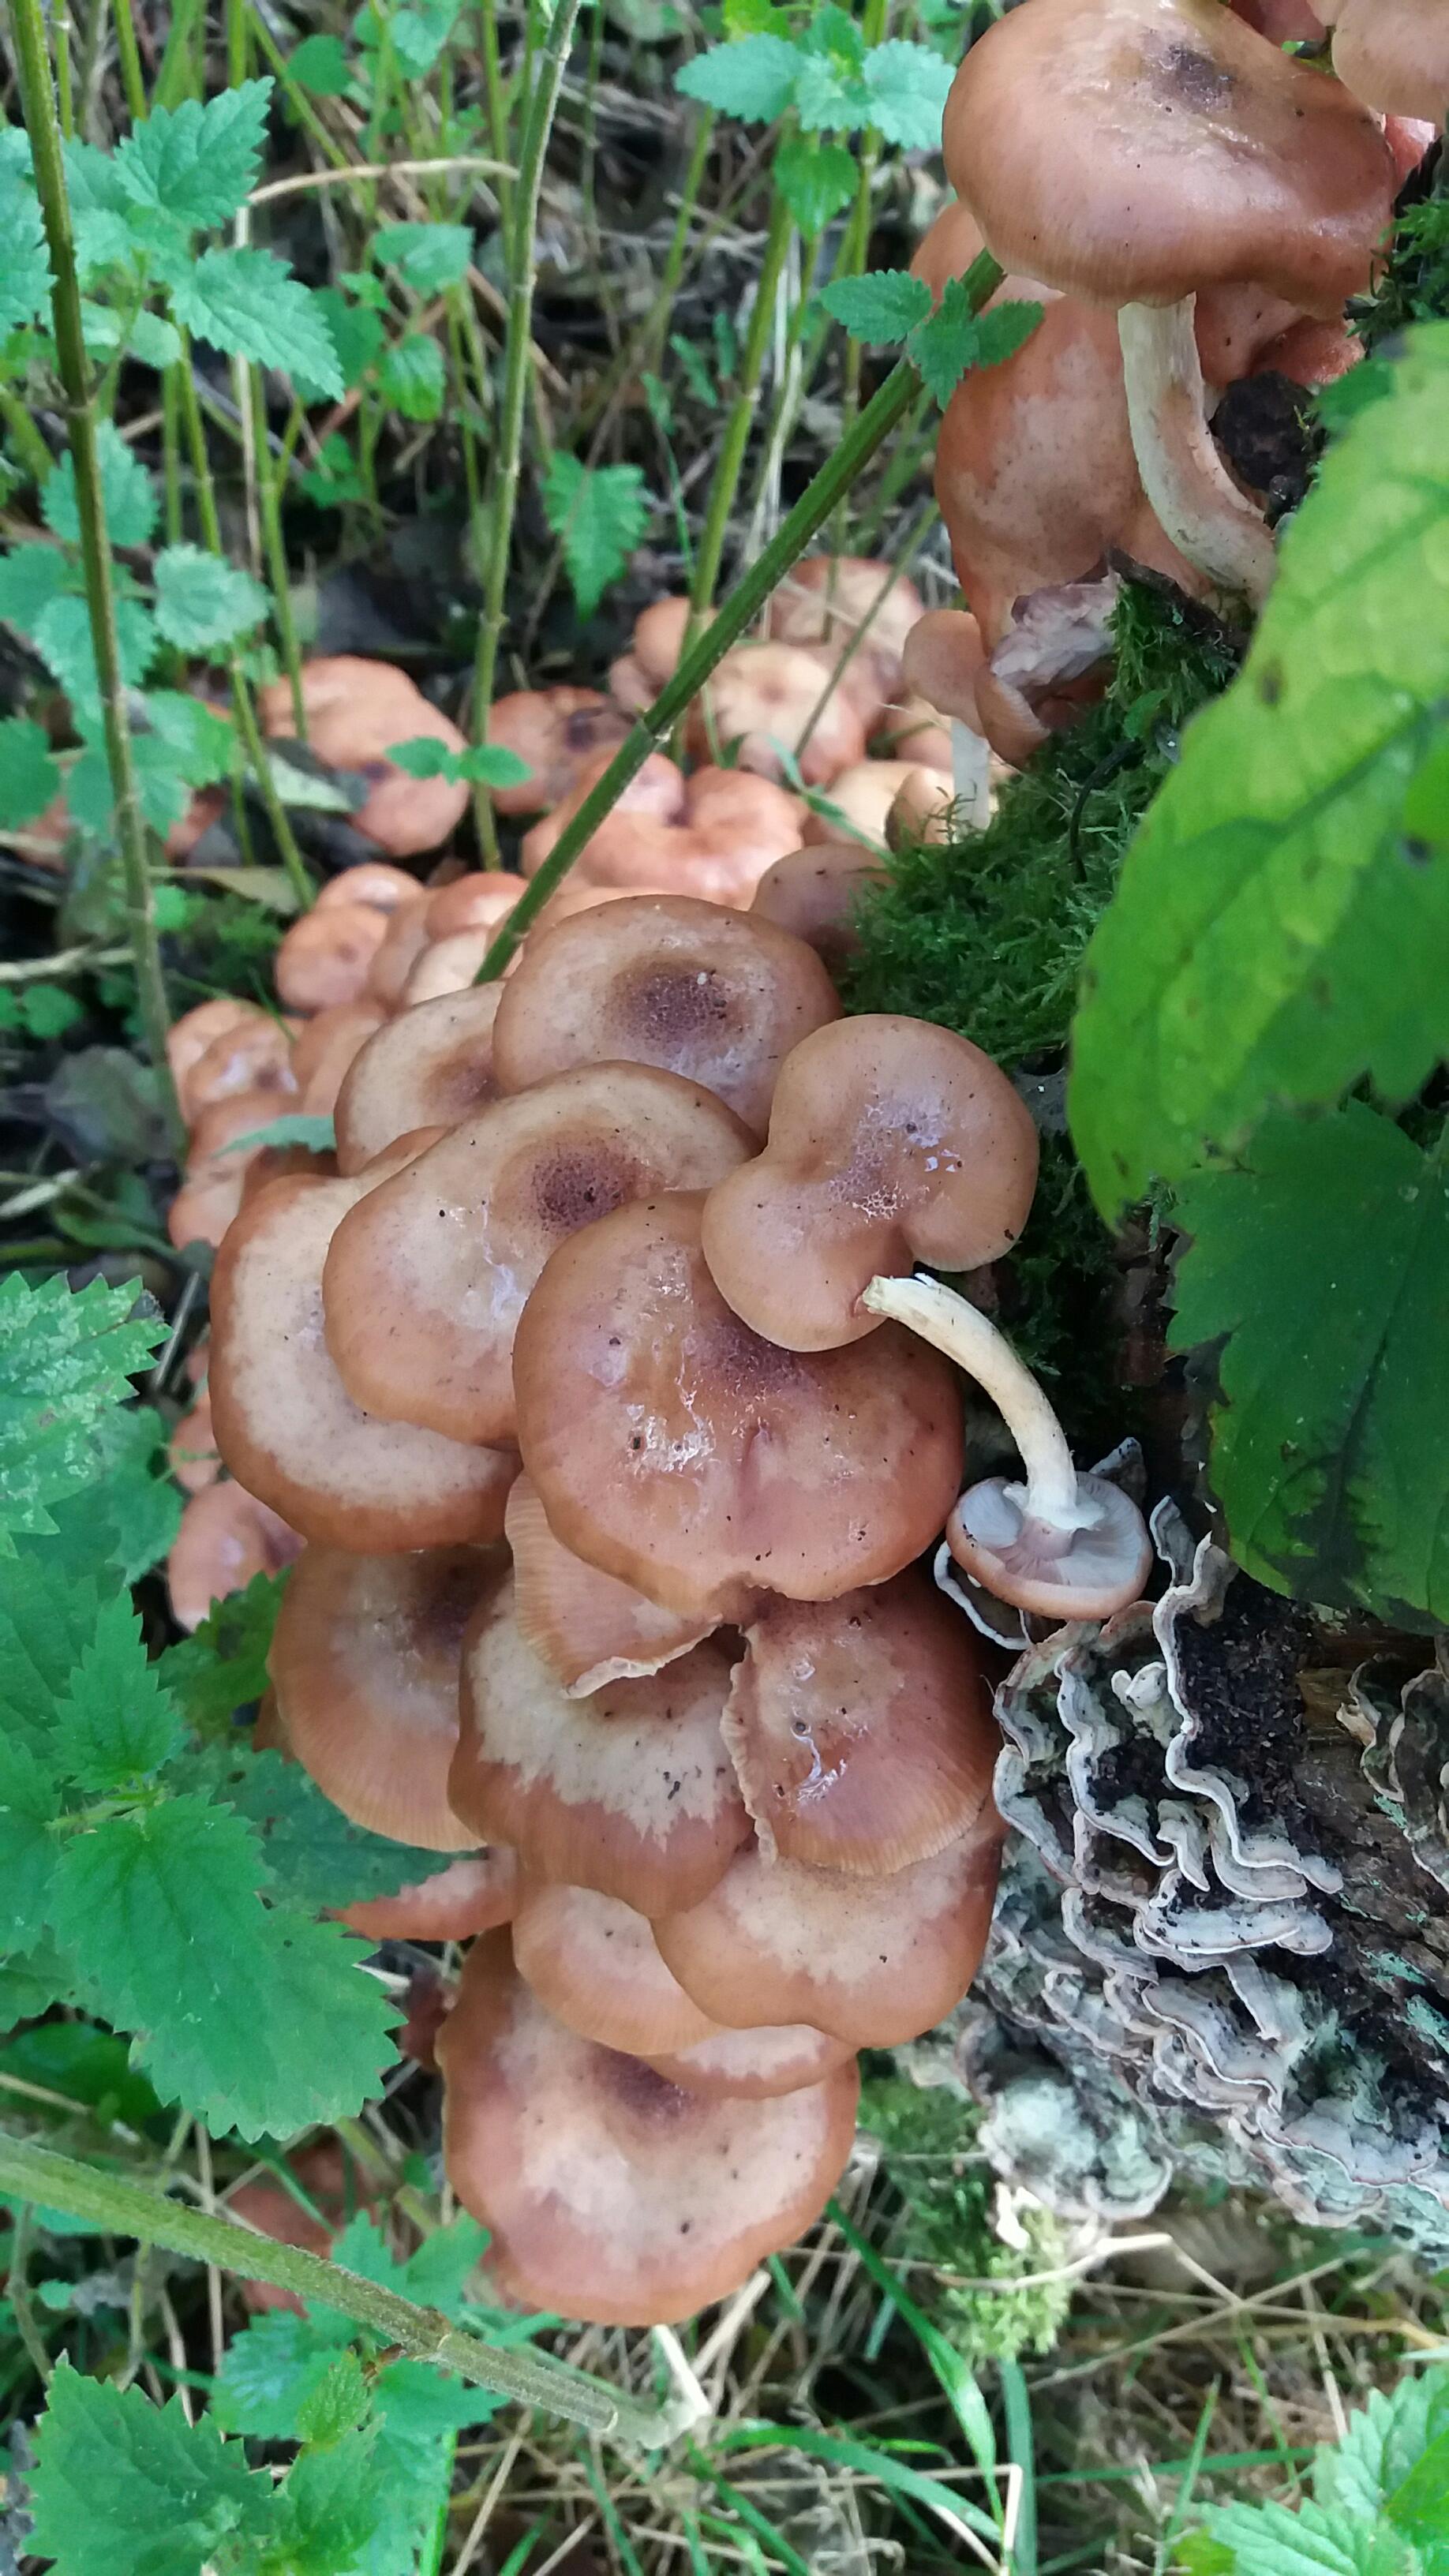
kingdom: Fungi
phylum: Basidiomycota
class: Agaricomycetes
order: Agaricales
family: Physalacriaceae
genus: Armillaria
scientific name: Armillaria lutea
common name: køllestokket honningsvamp
